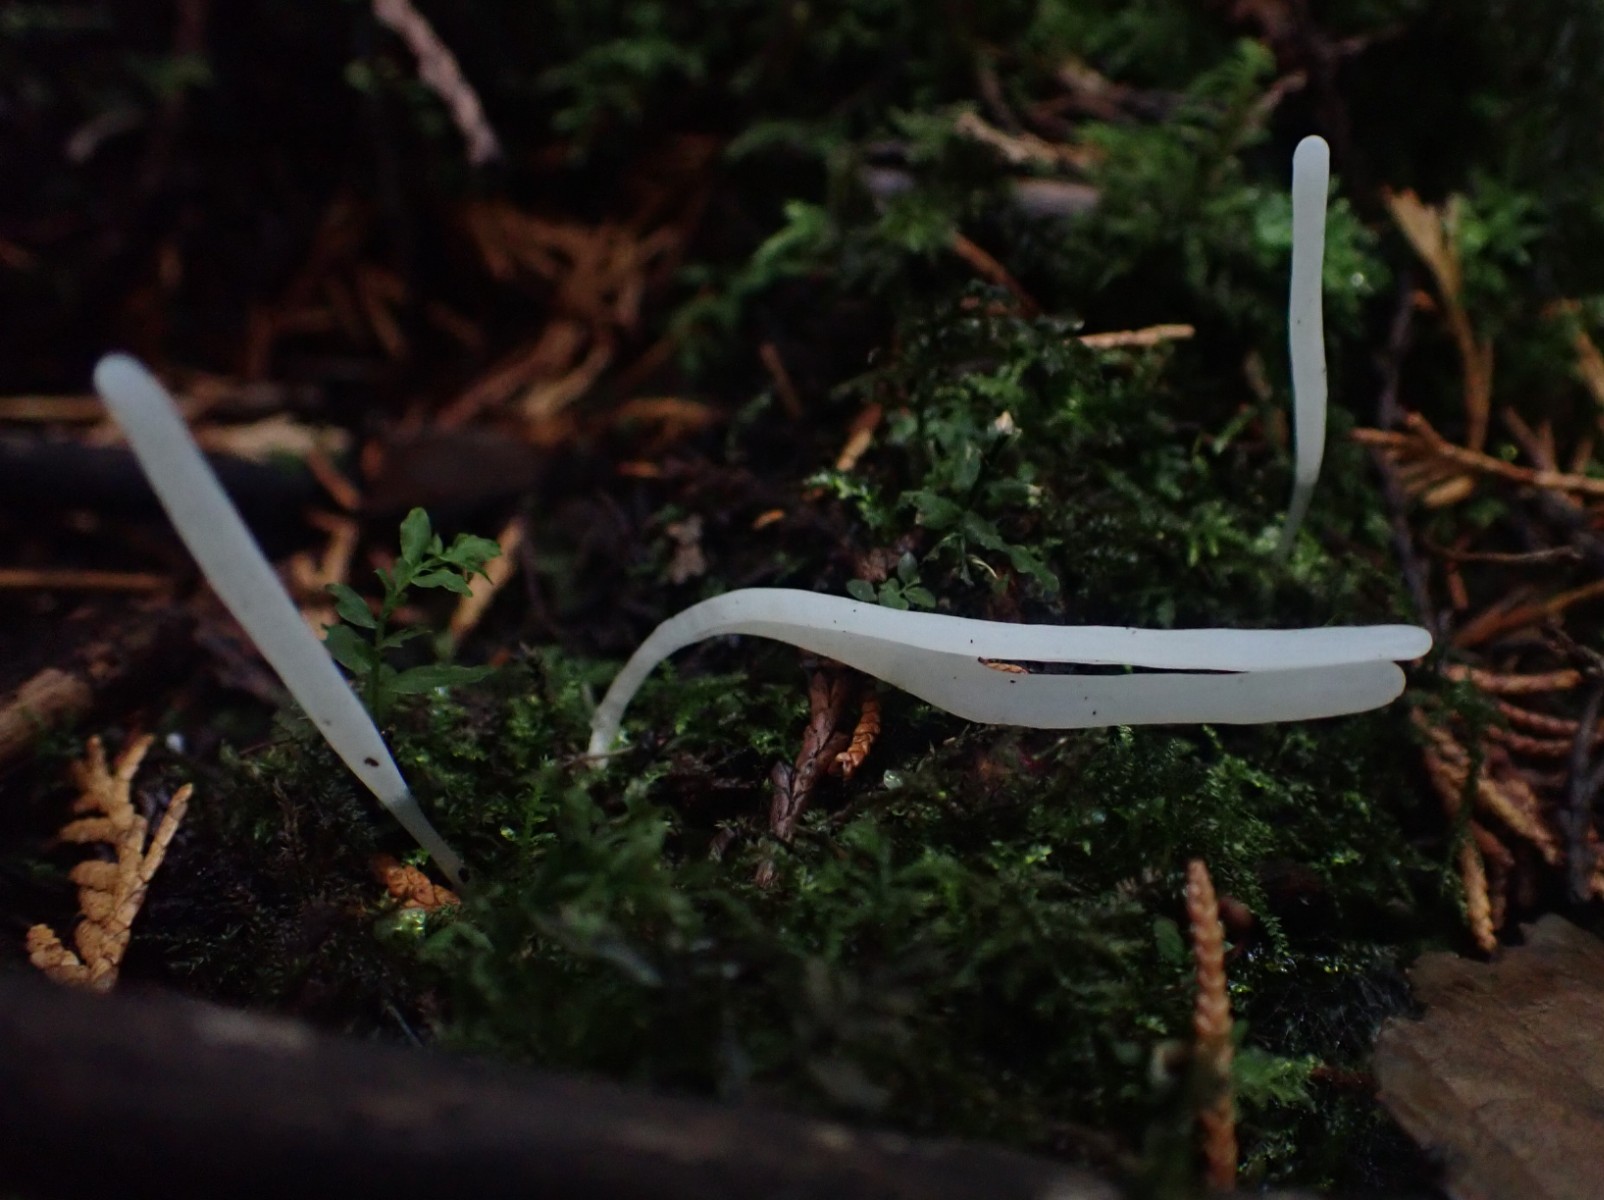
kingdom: Fungi
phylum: Basidiomycota
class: Agaricomycetes
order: Agaricales
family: Clavariaceae
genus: Clavaria
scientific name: Clavaria falcata
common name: hvid køllesvamp
